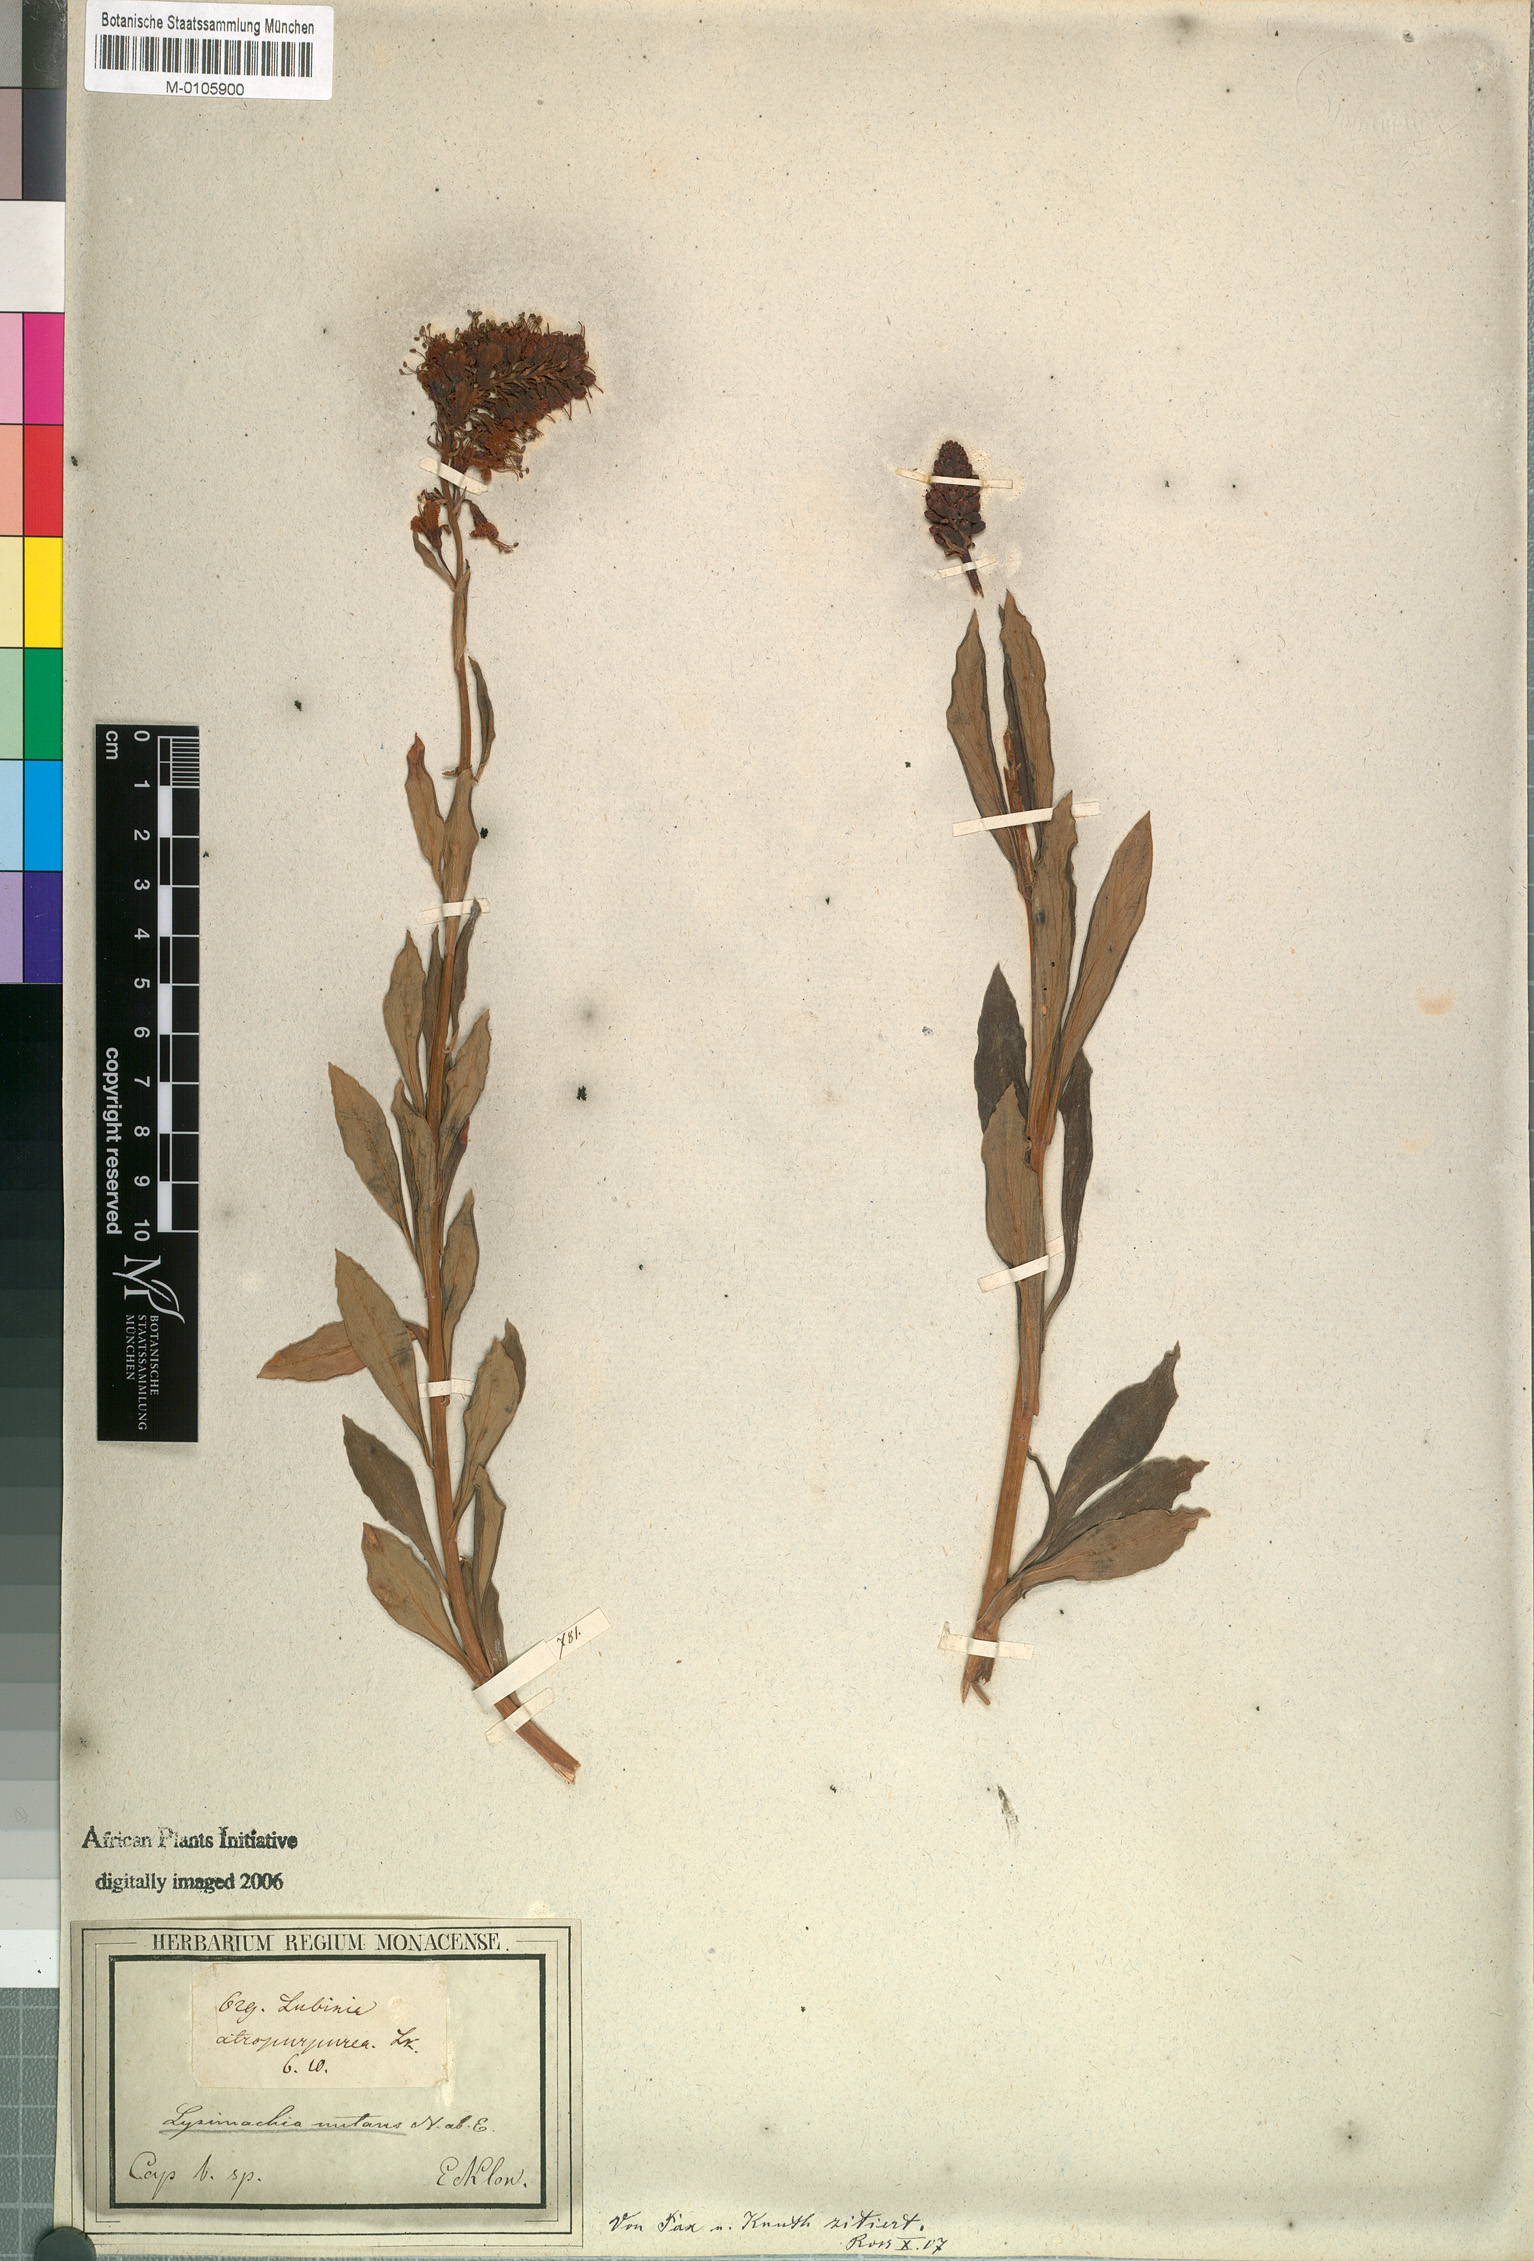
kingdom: Plantae
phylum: Tracheophyta
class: Magnoliopsida
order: Ericales
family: Primulaceae
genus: Lysimachia
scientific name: Lysimachia nutans
